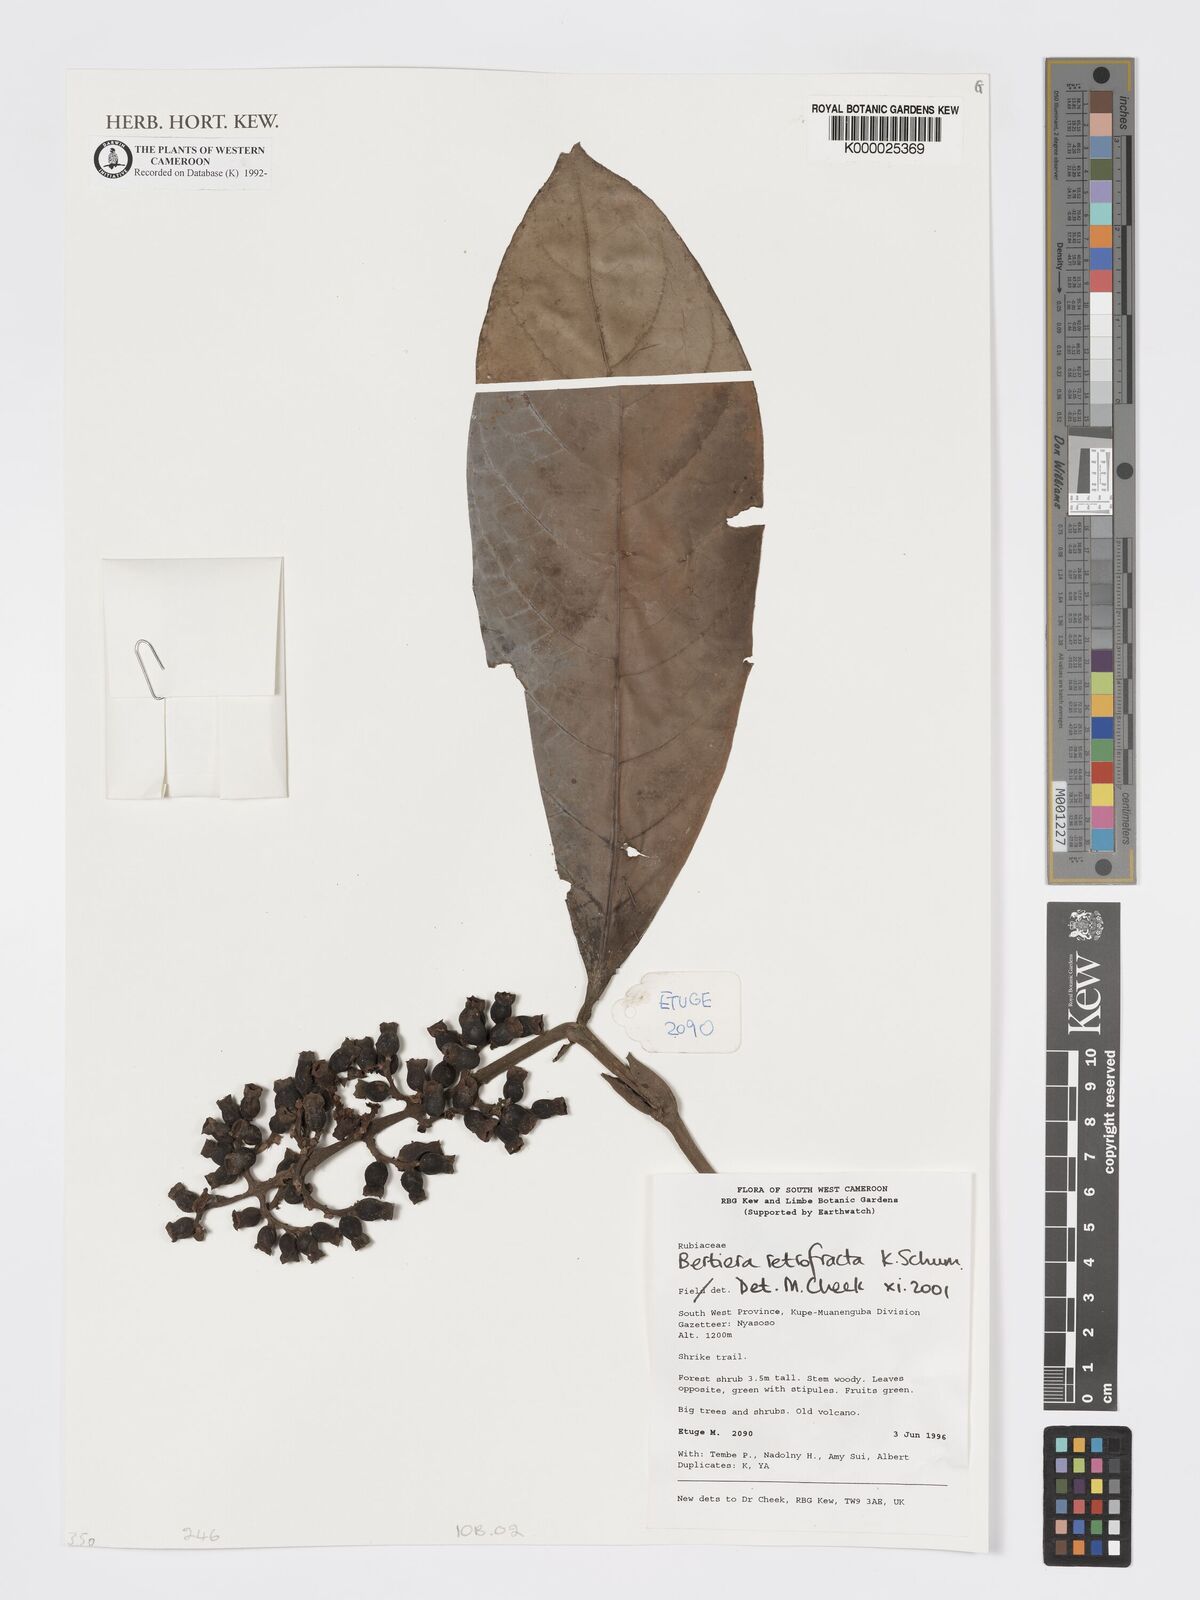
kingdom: Plantae
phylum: Tracheophyta
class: Magnoliopsida
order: Gentianales
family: Rubiaceae
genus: Bertiera
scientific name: Bertiera retrofracta
